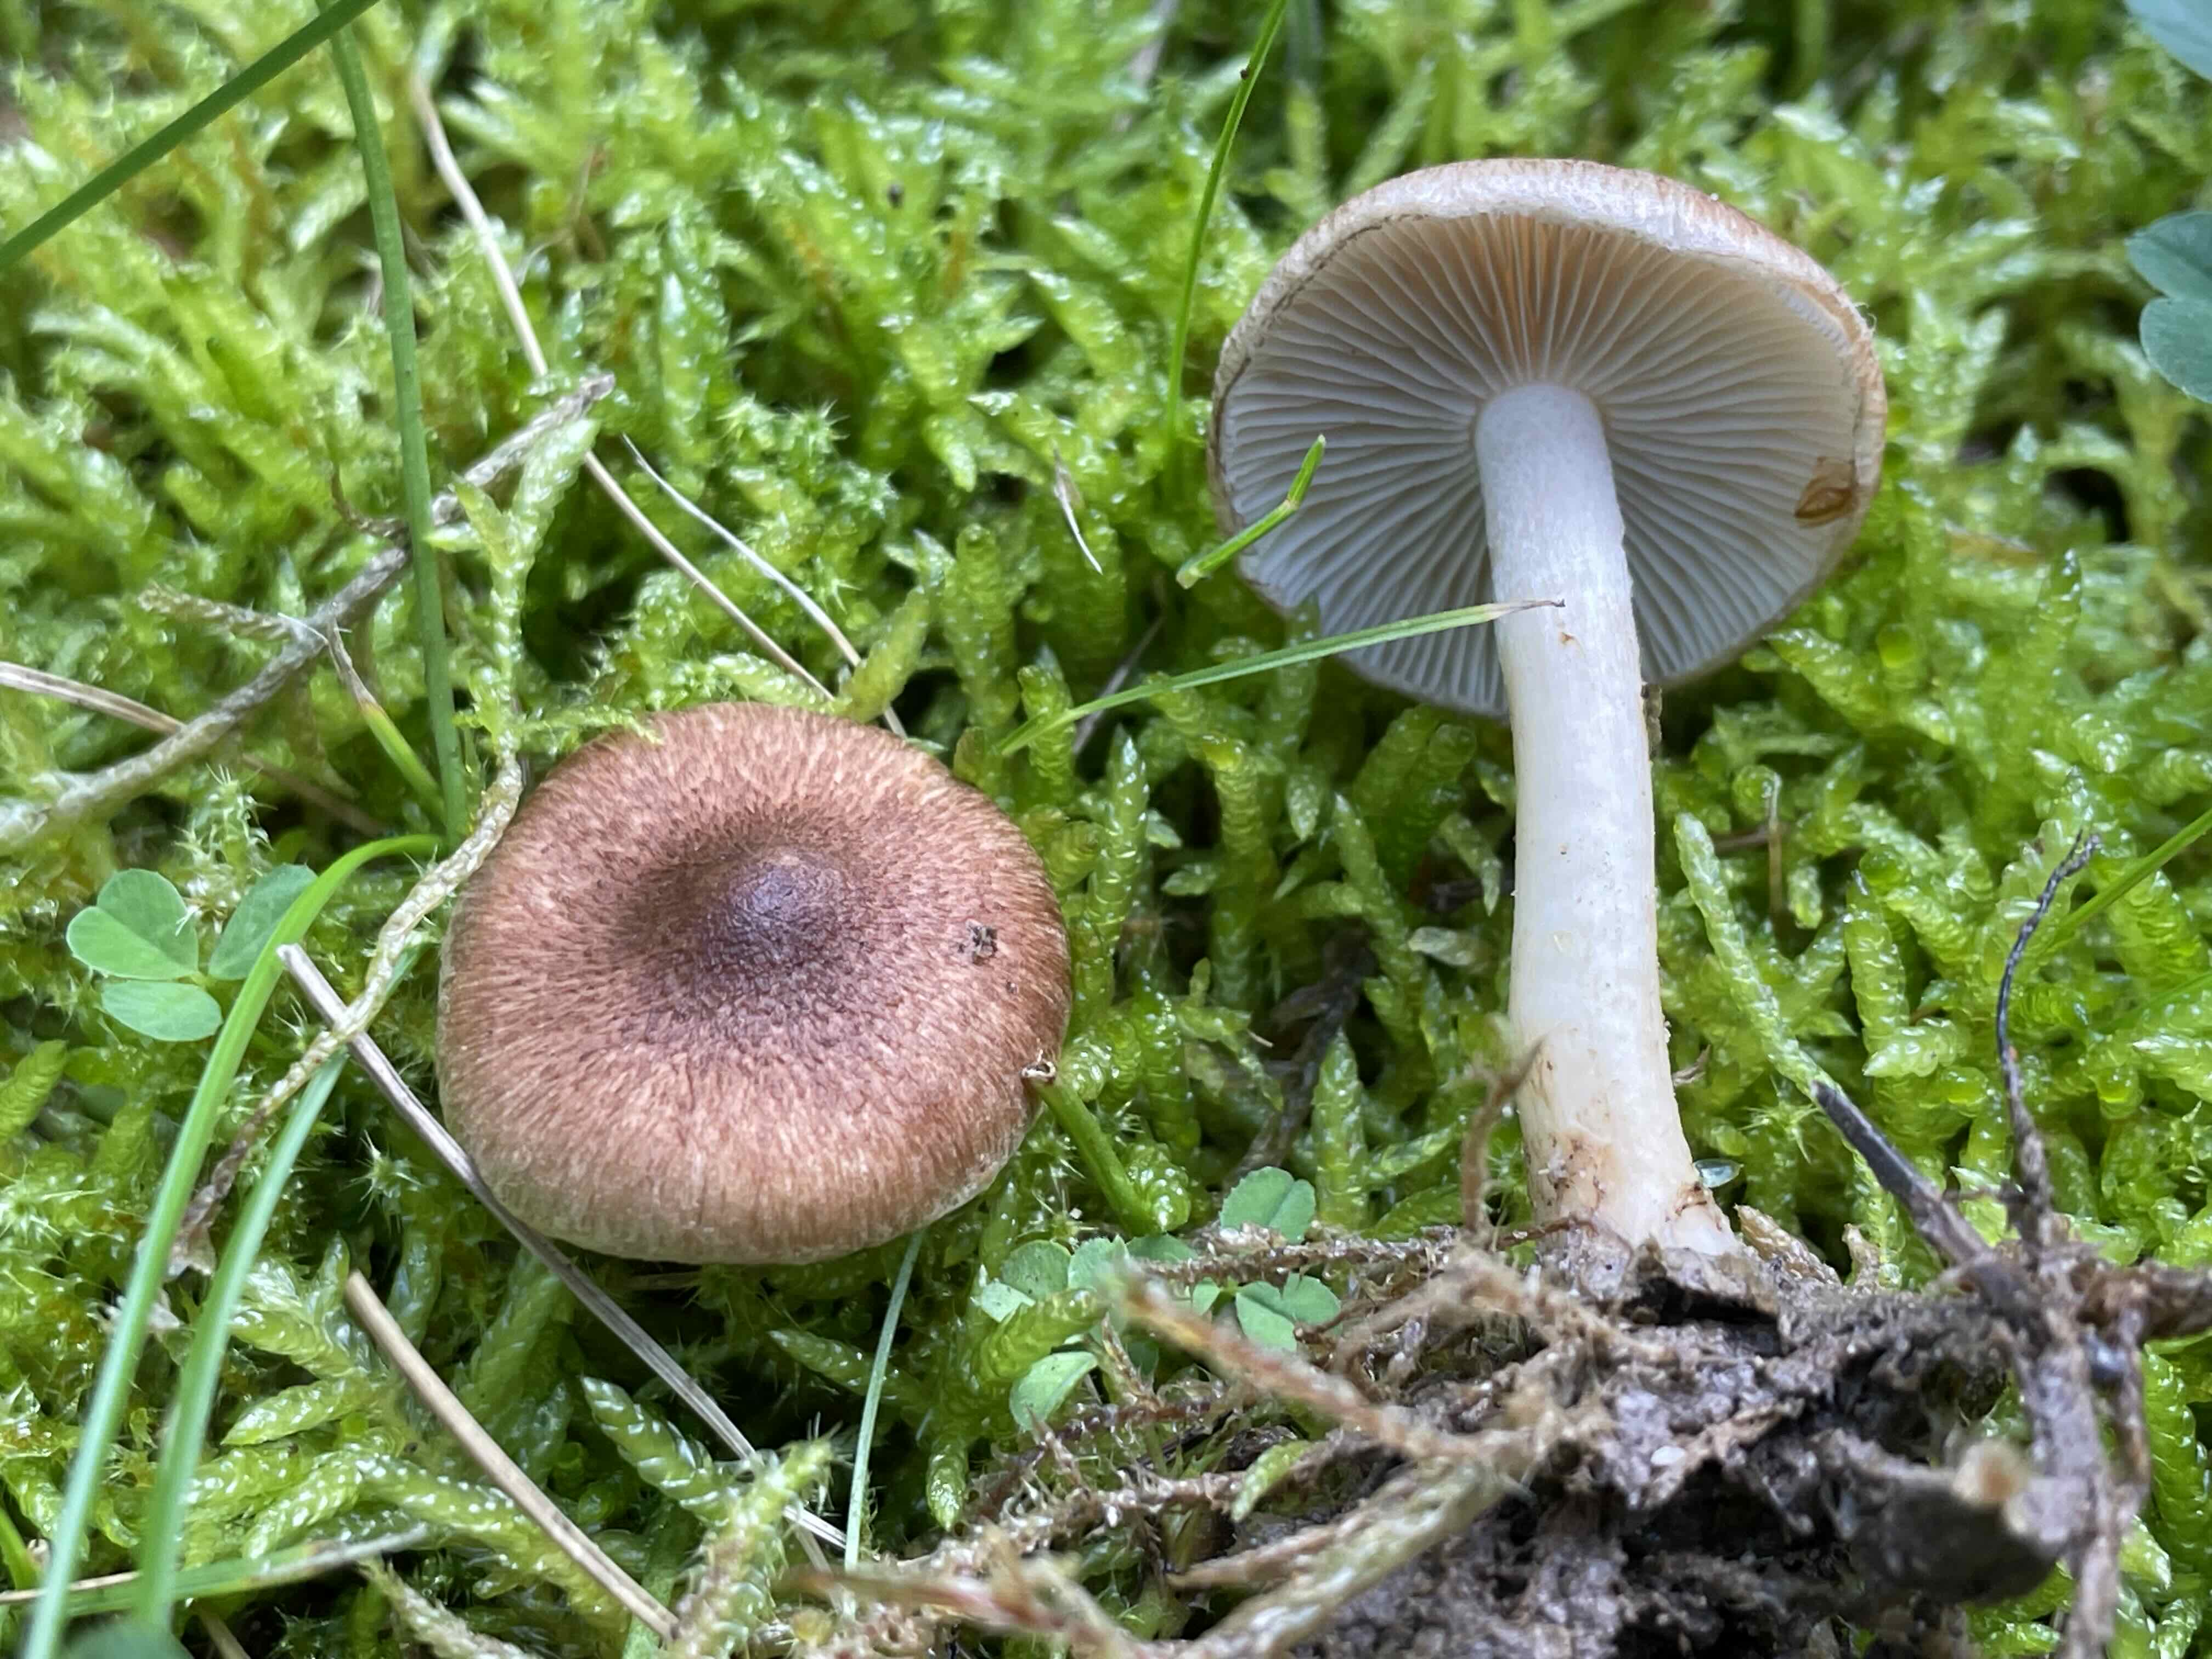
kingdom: Fungi
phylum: Basidiomycota
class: Agaricomycetes
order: Agaricales
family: Inocybaceae
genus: Inocybe
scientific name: Inocybe
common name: trævlhat
